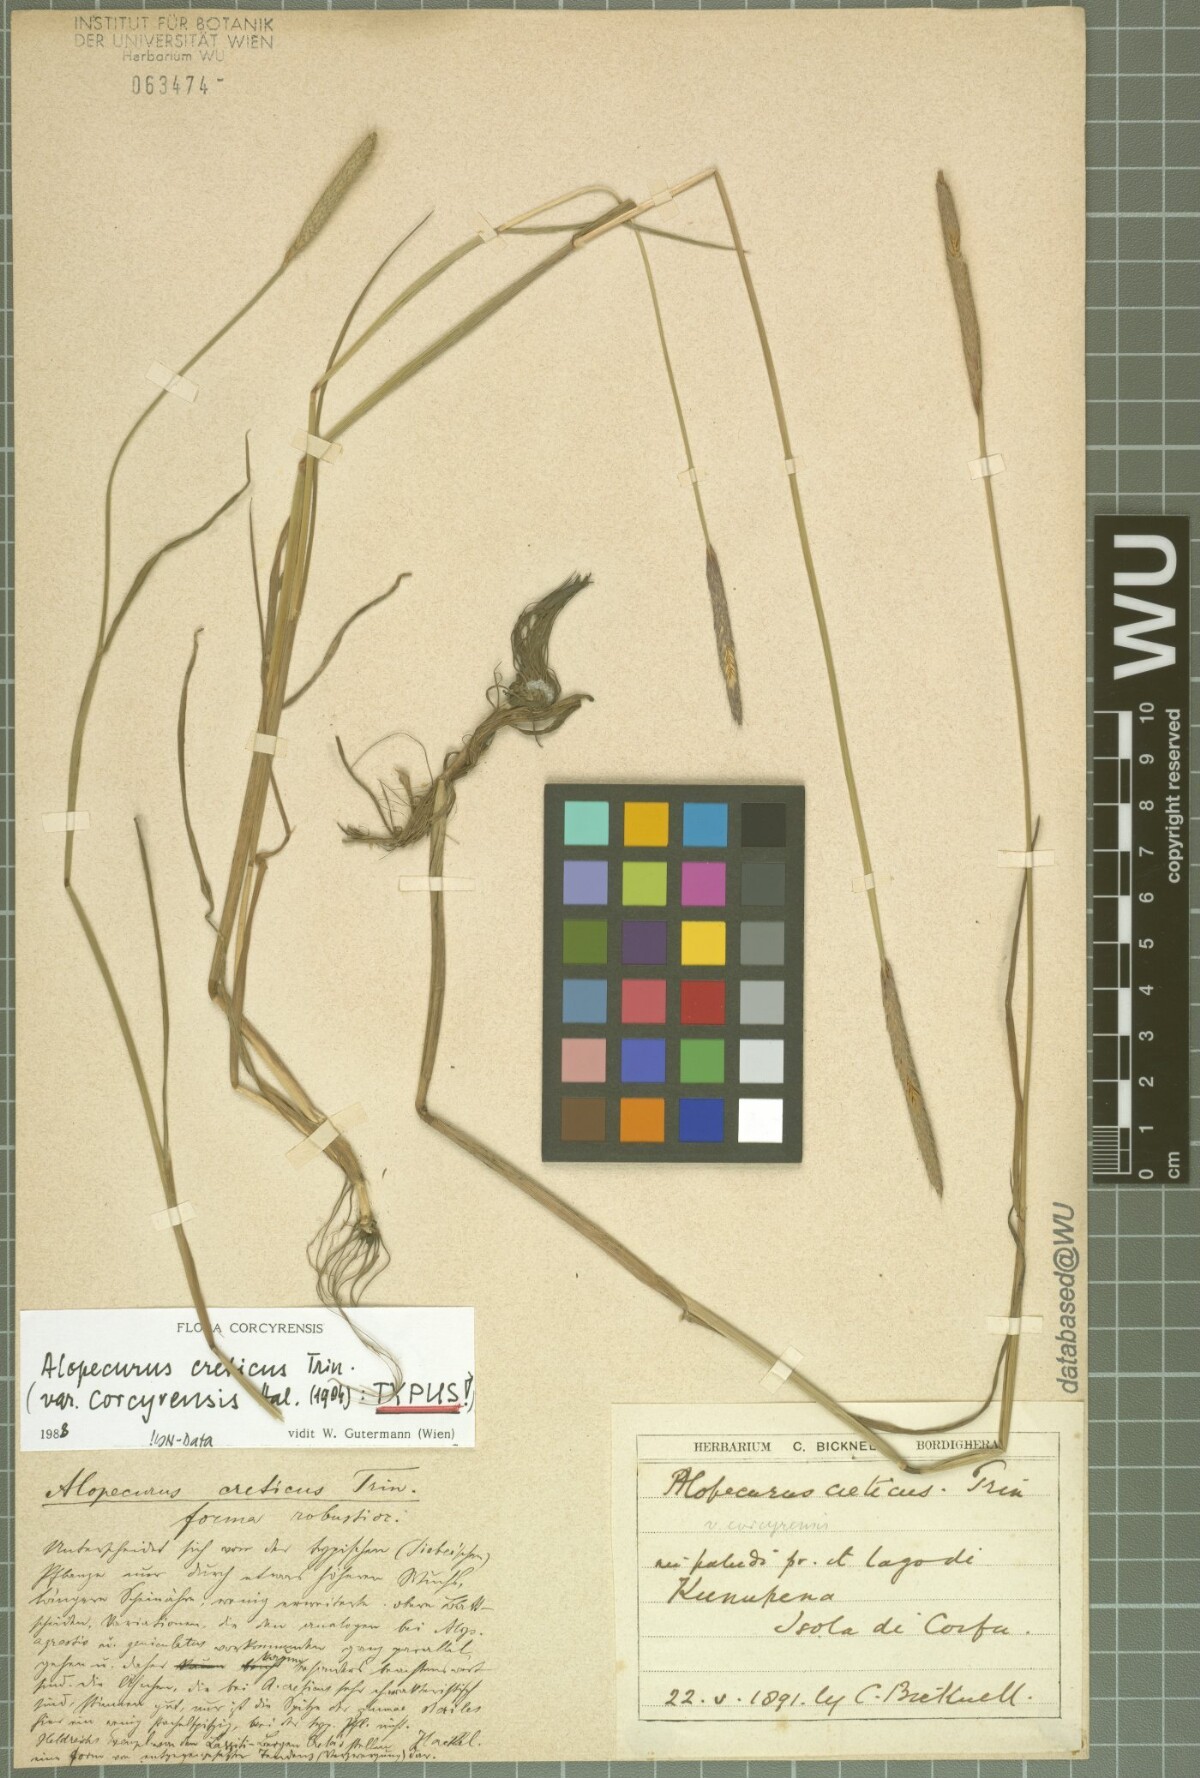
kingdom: Plantae
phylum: Tracheophyta
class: Liliopsida
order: Poales
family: Poaceae
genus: Alopecurus
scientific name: Alopecurus myosuroides
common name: Black-grass
